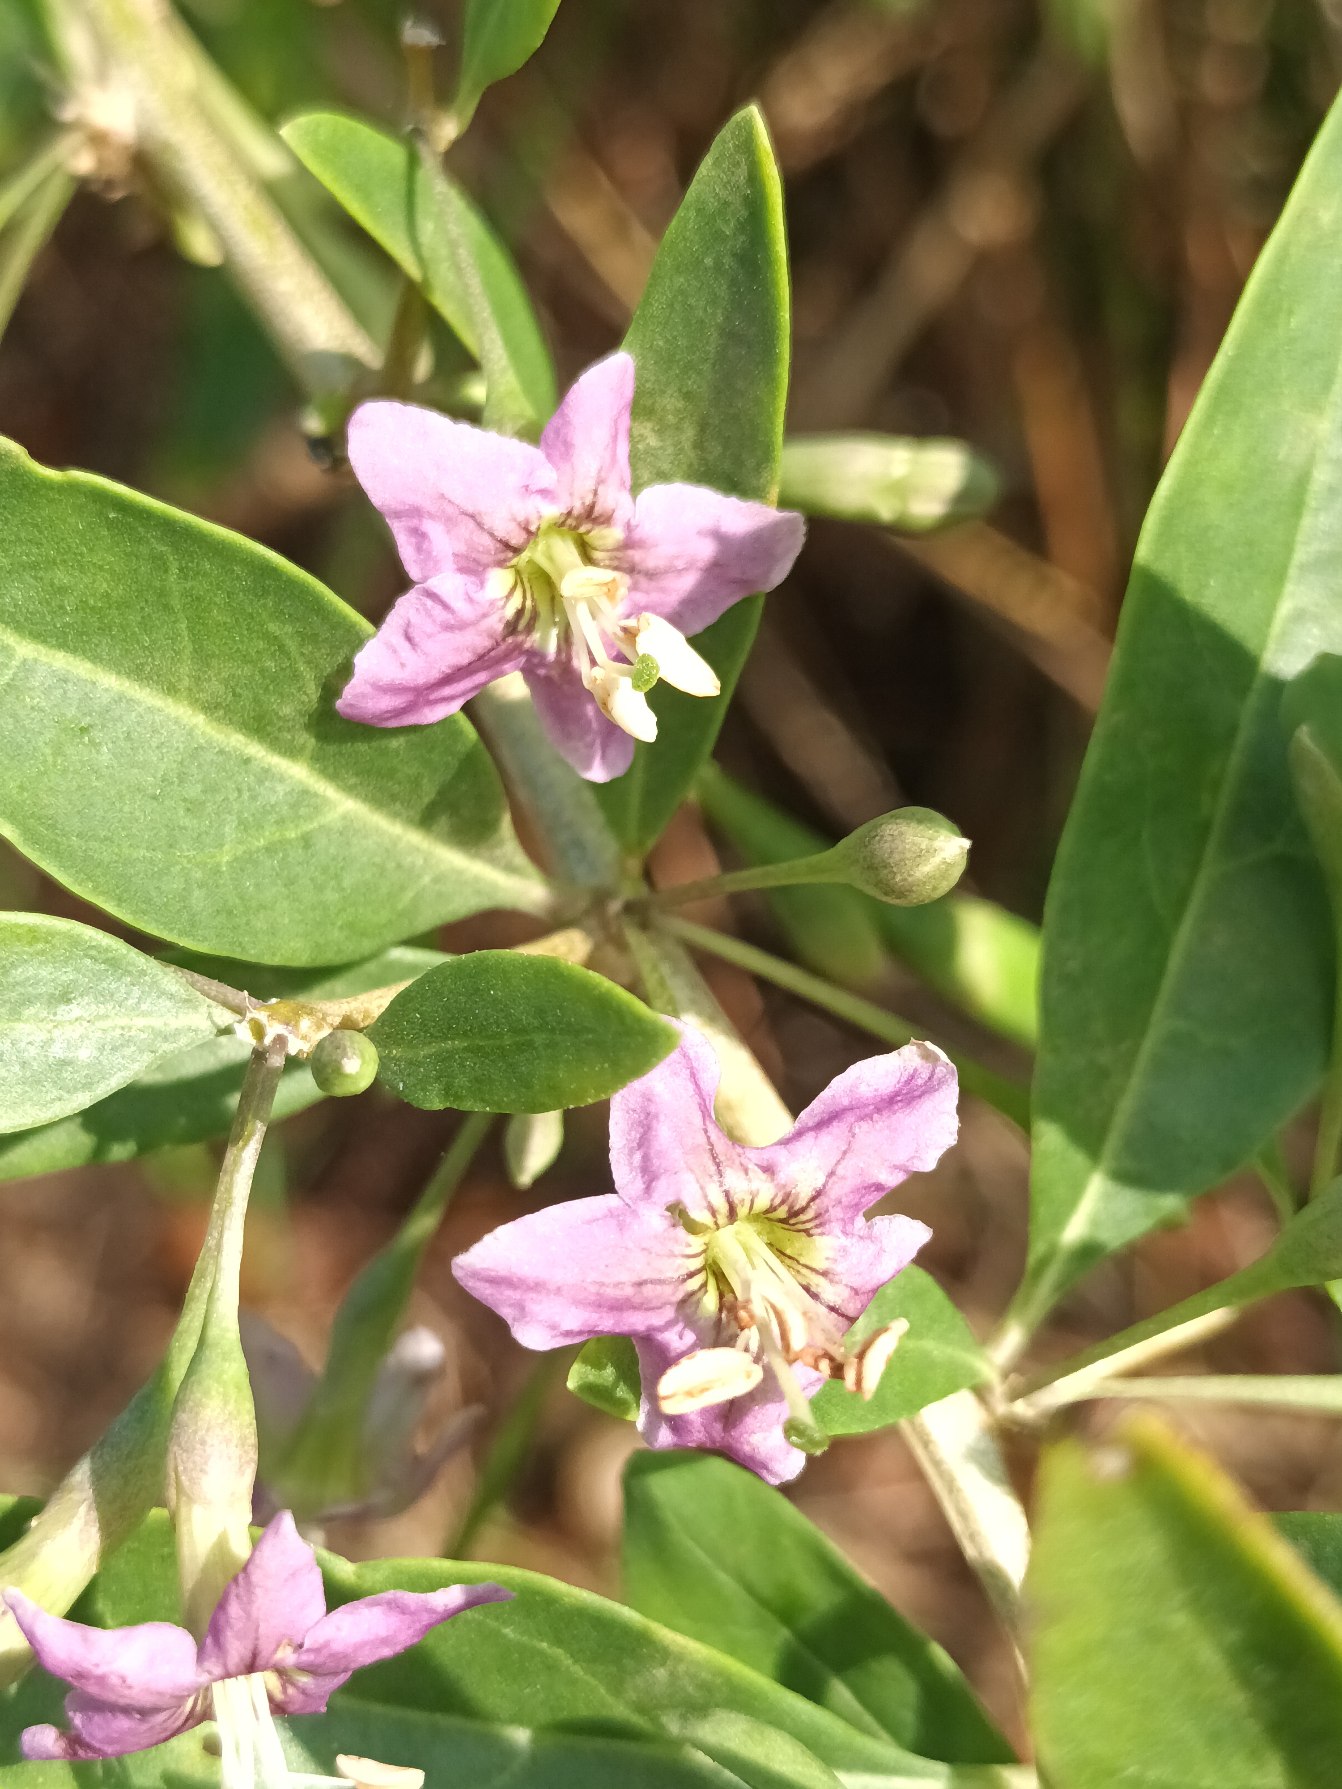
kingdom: Plantae
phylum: Tracheophyta
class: Magnoliopsida
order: Solanales
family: Solanaceae
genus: Lycium
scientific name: Lycium barbarum
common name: Bukketorn
